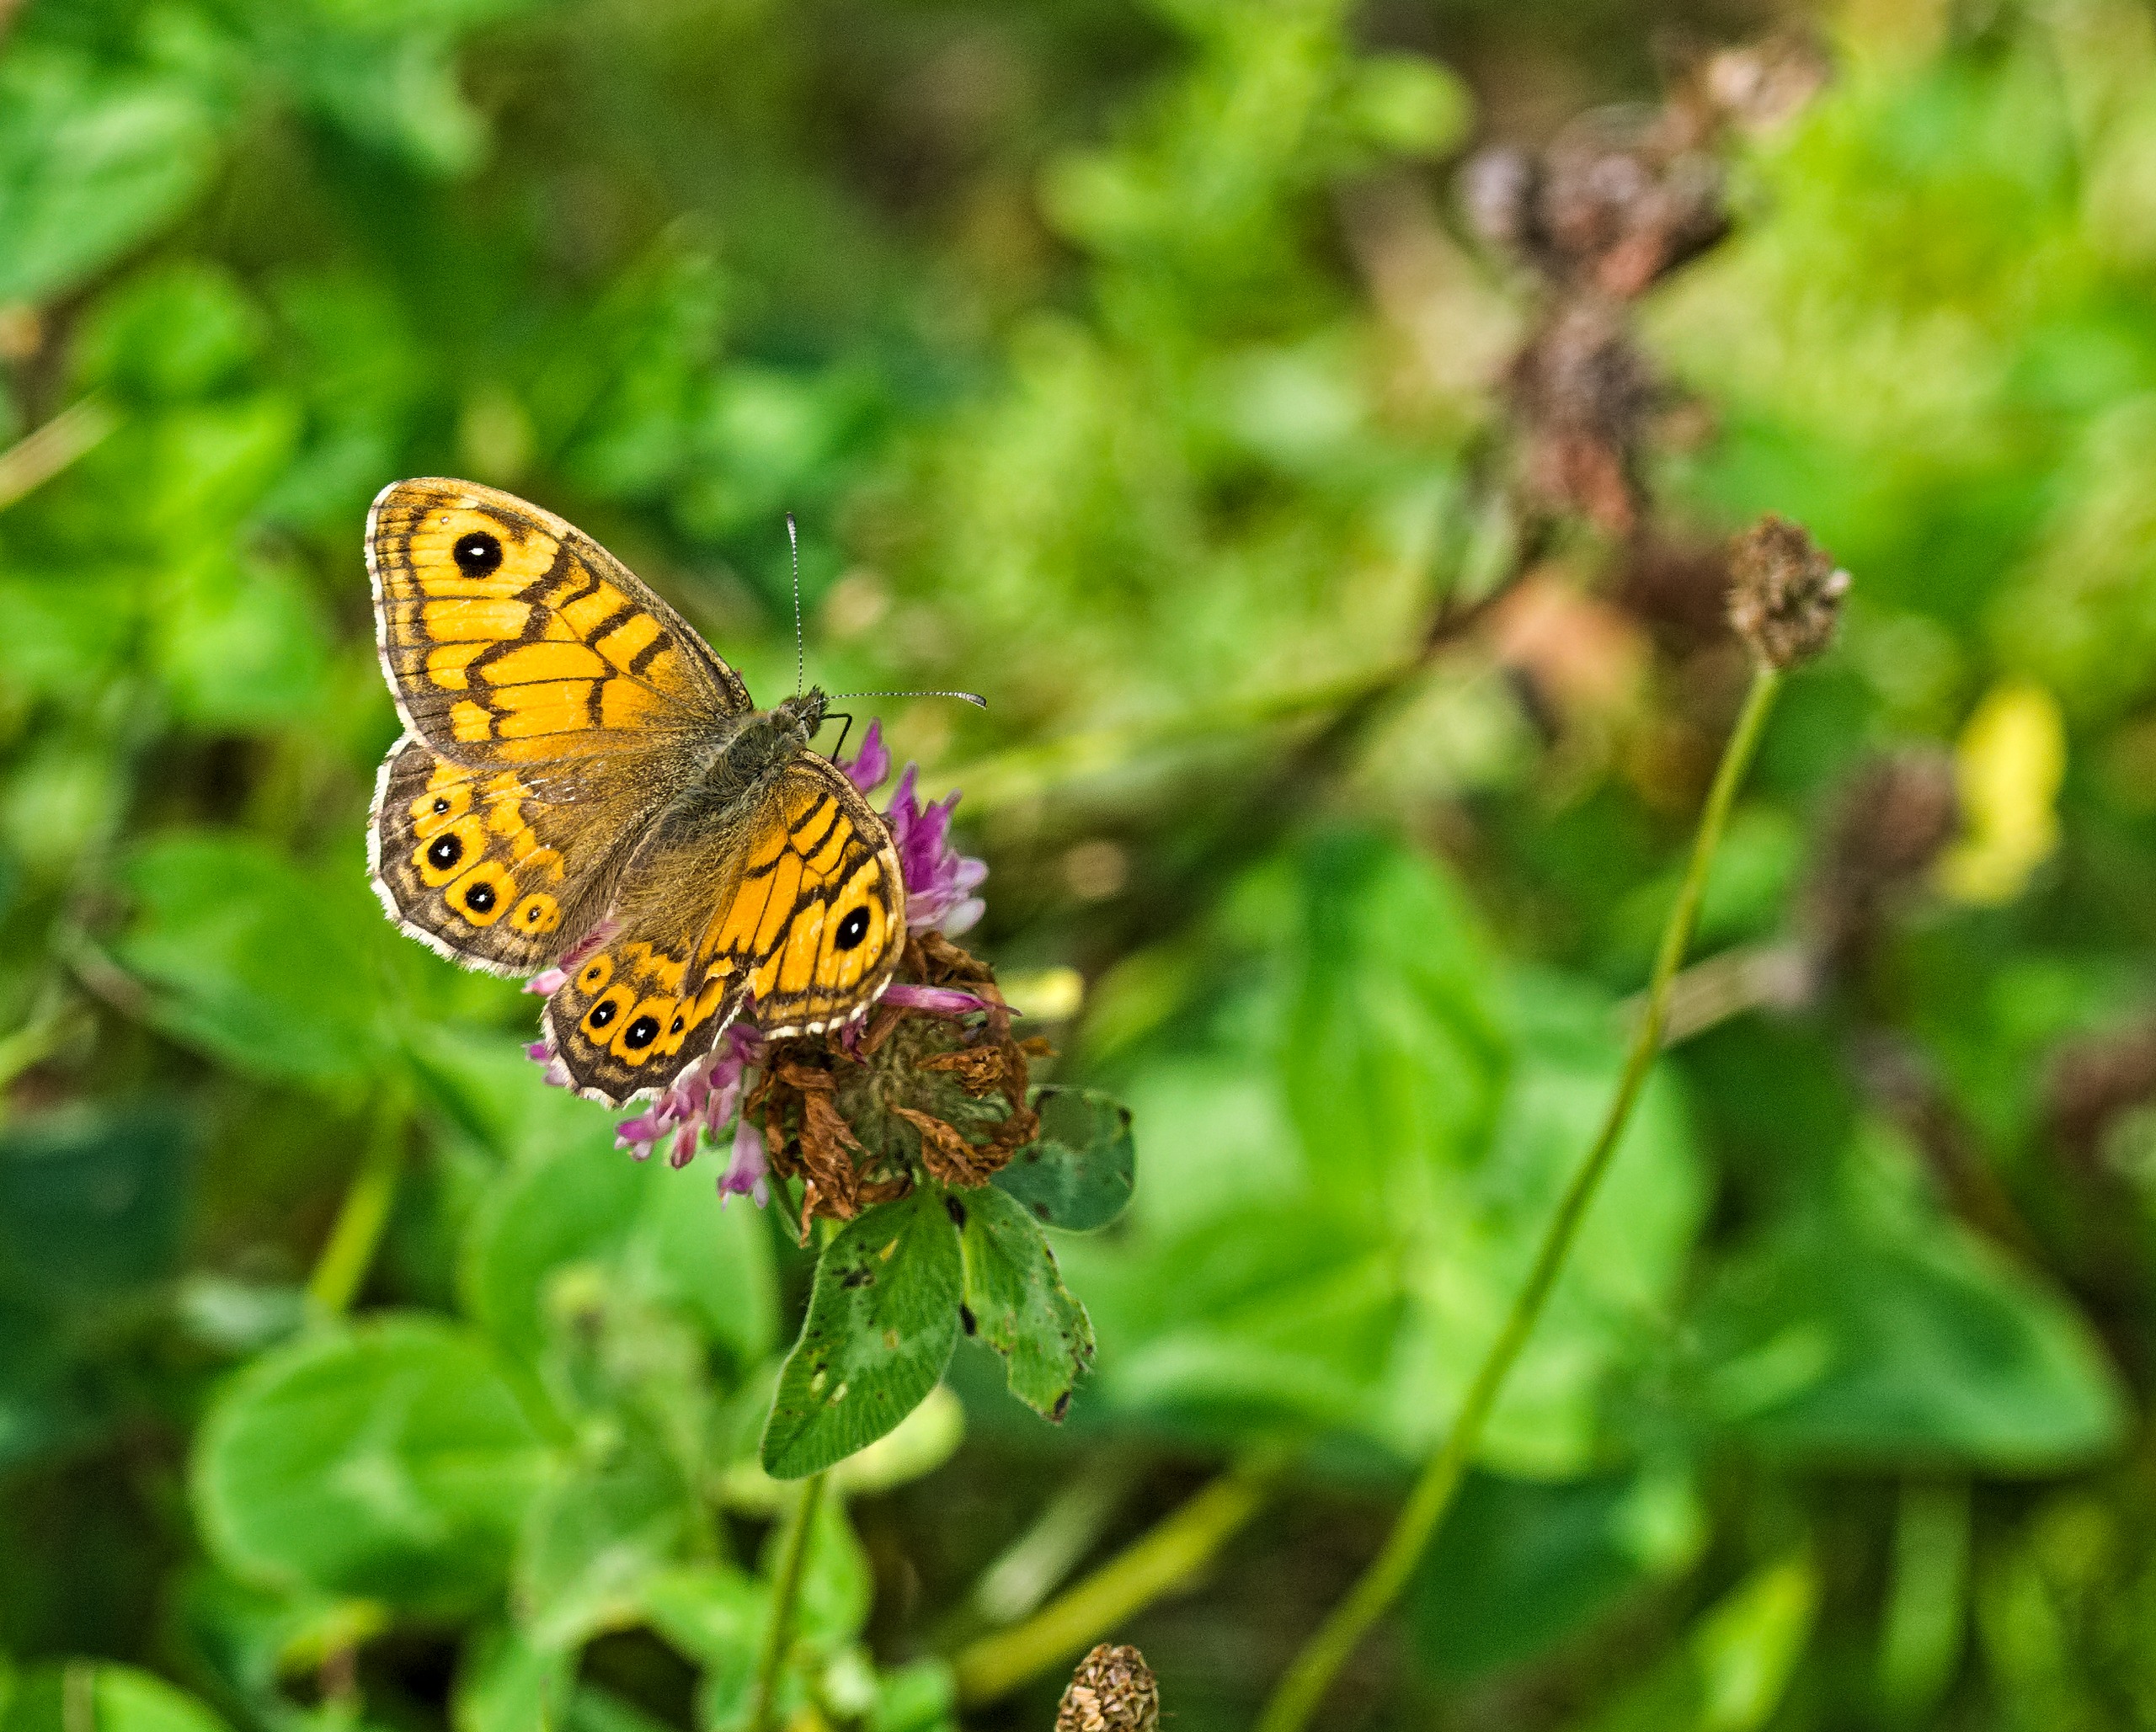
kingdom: Animalia
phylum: Arthropoda
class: Insecta
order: Lepidoptera
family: Nymphalidae
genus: Pararge
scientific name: Pararge Lasiommata megera
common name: Vejrandøje
